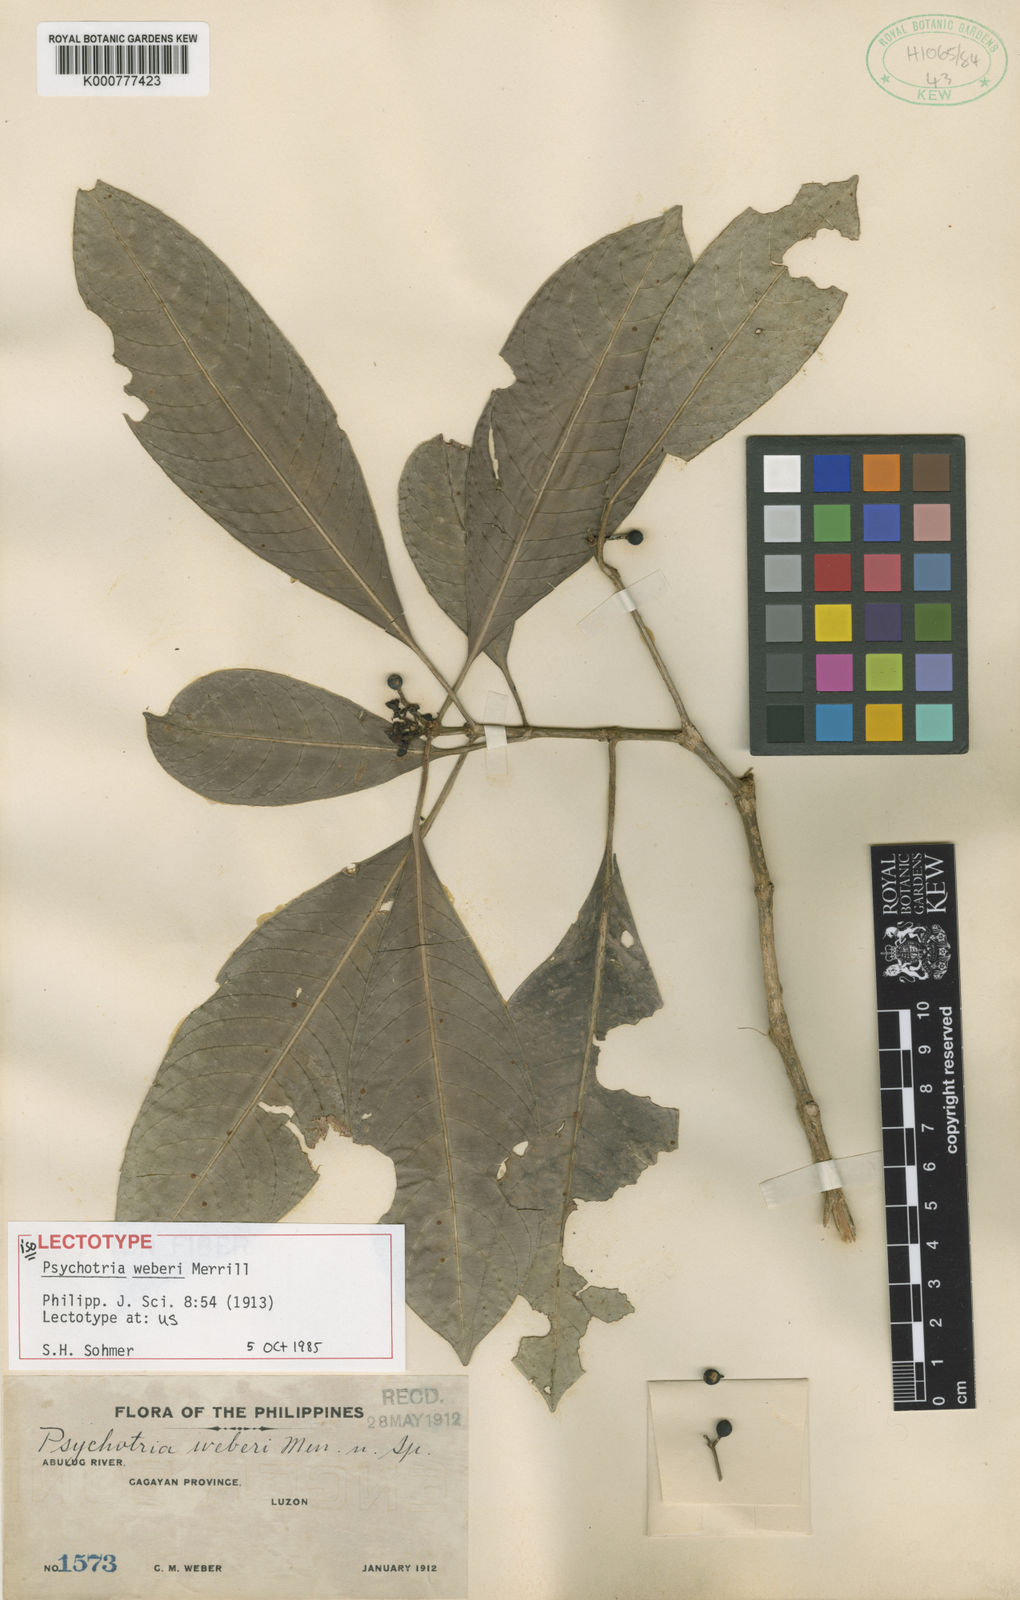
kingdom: Plantae
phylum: Tracheophyta
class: Magnoliopsida
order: Gentianales
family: Rubiaceae
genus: Psychotria
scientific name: Psychotria weberi
